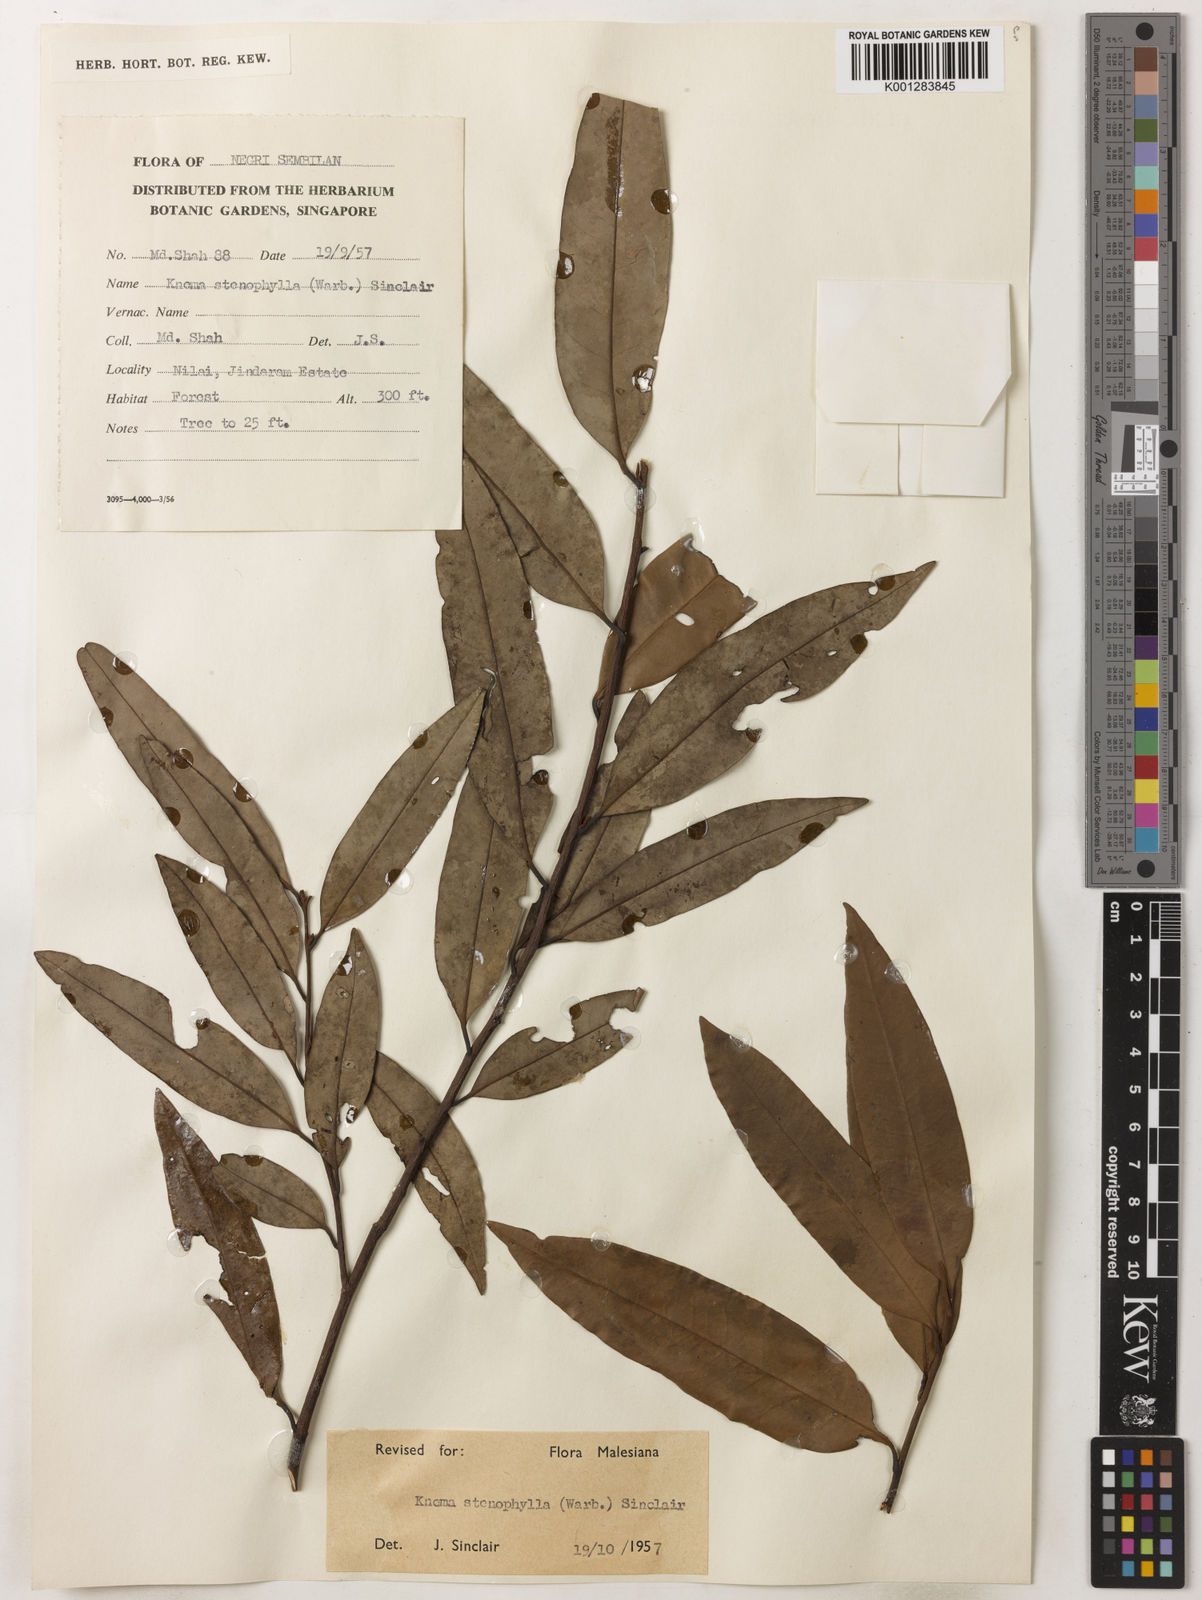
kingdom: Plantae
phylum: Tracheophyta
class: Magnoliopsida
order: Magnoliales
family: Myristicaceae
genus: Knema
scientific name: Knema stenophylla
